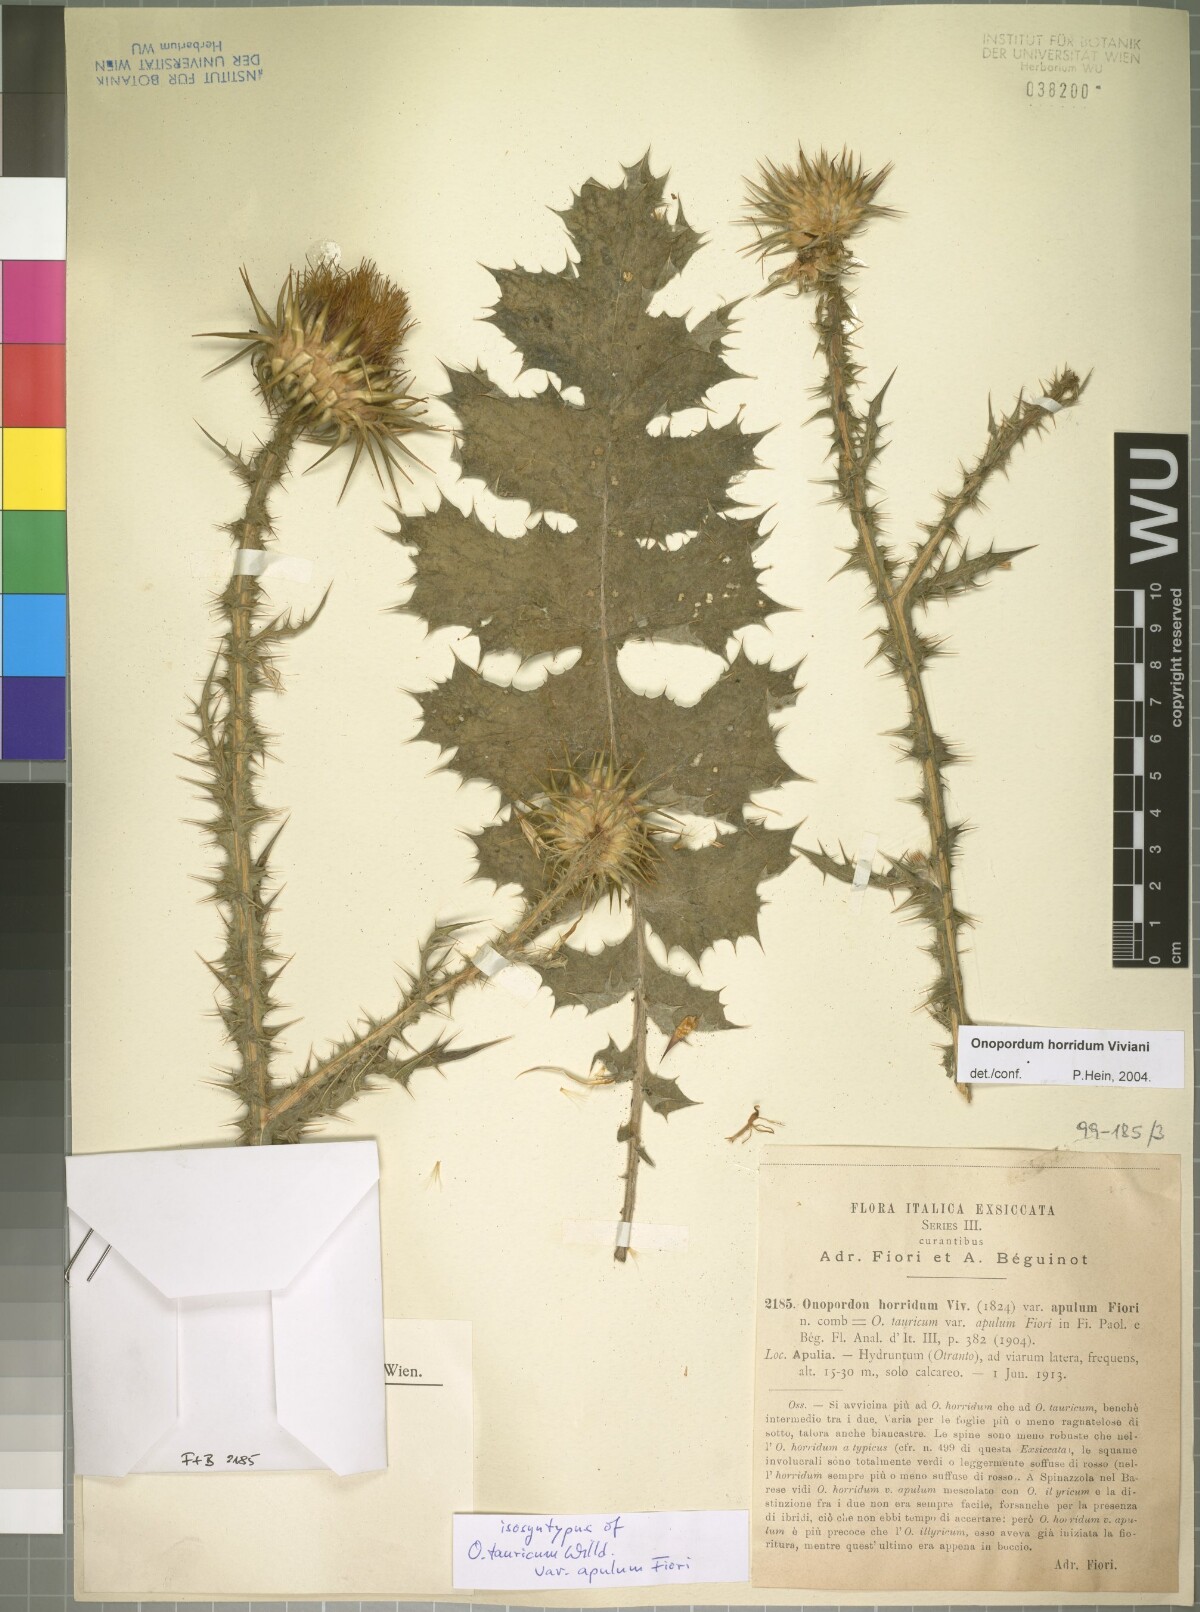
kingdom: Plantae
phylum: Tracheophyta
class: Magnoliopsida
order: Asterales
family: Asteraceae
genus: Onopordum
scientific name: Onopordum tauricum
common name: Bull cottonthistle
